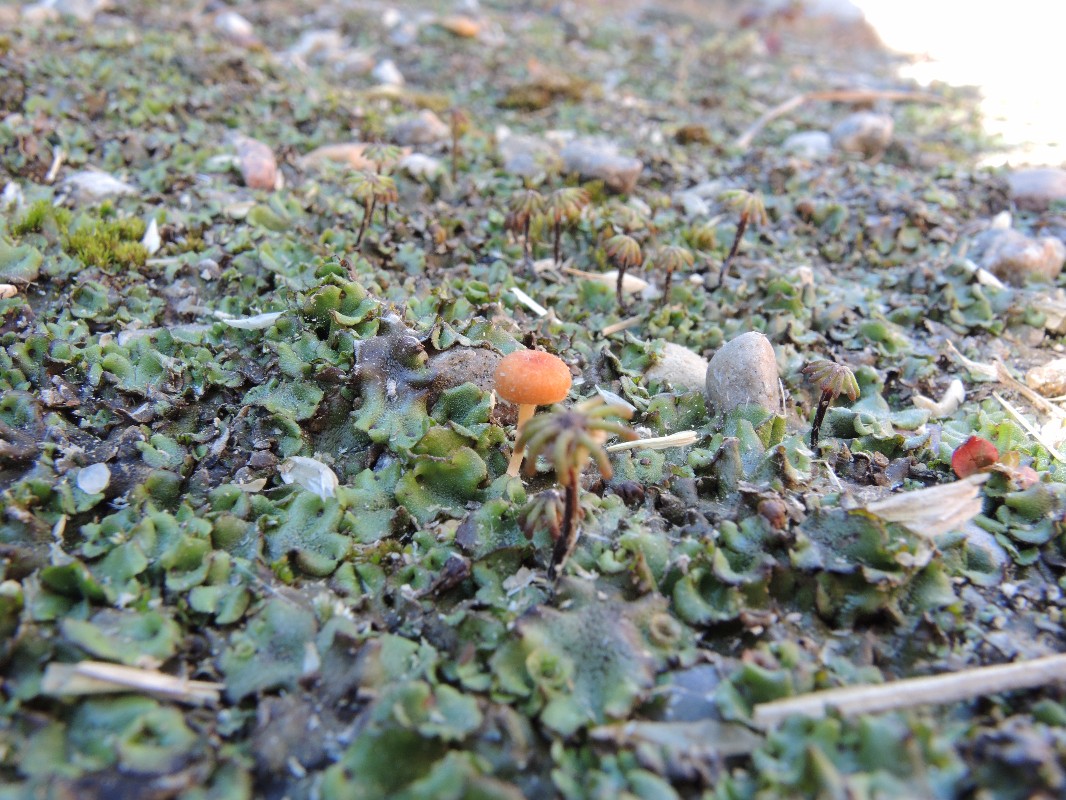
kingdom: Fungi
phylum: Basidiomycota
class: Agaricomycetes
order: Hymenochaetales
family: Rickenellaceae
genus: Loreleia
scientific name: Loreleia marchantiae
